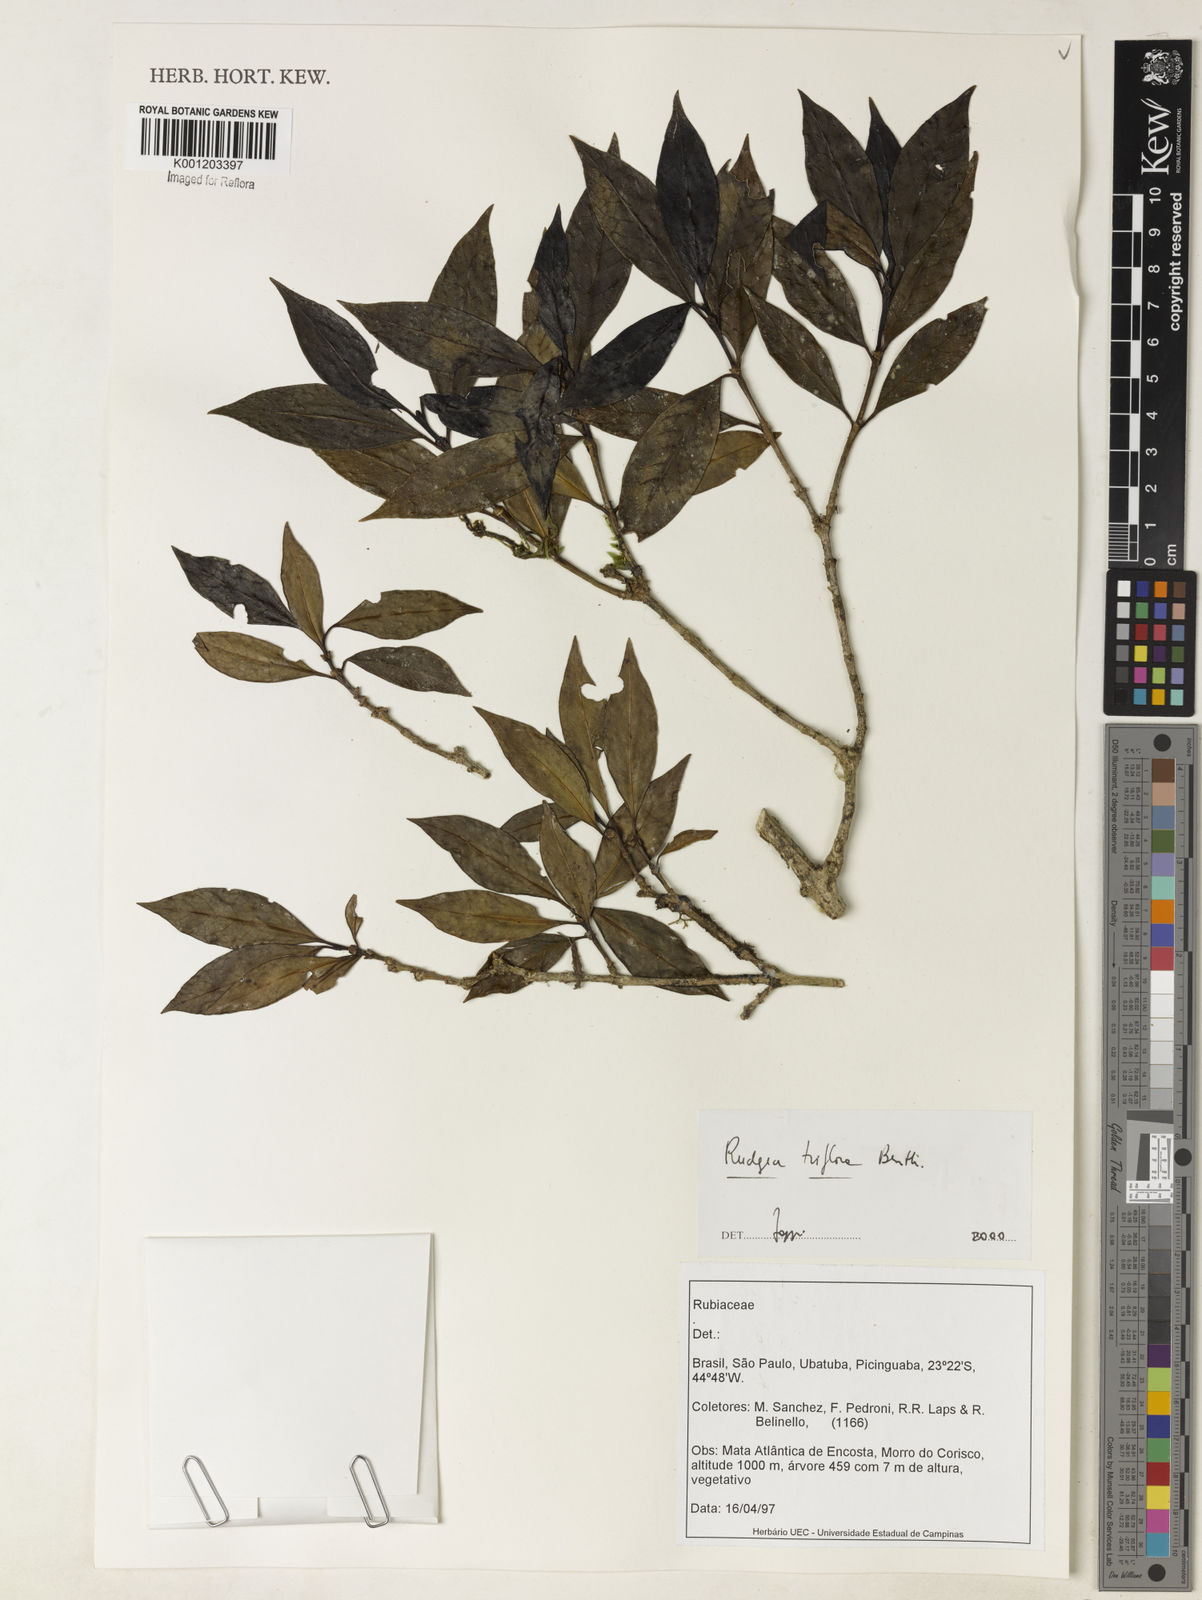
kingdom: Plantae
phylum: Tracheophyta
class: Magnoliopsida
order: Gentianales
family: Rubiaceae
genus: Rudgea
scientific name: Rudgea triflora
